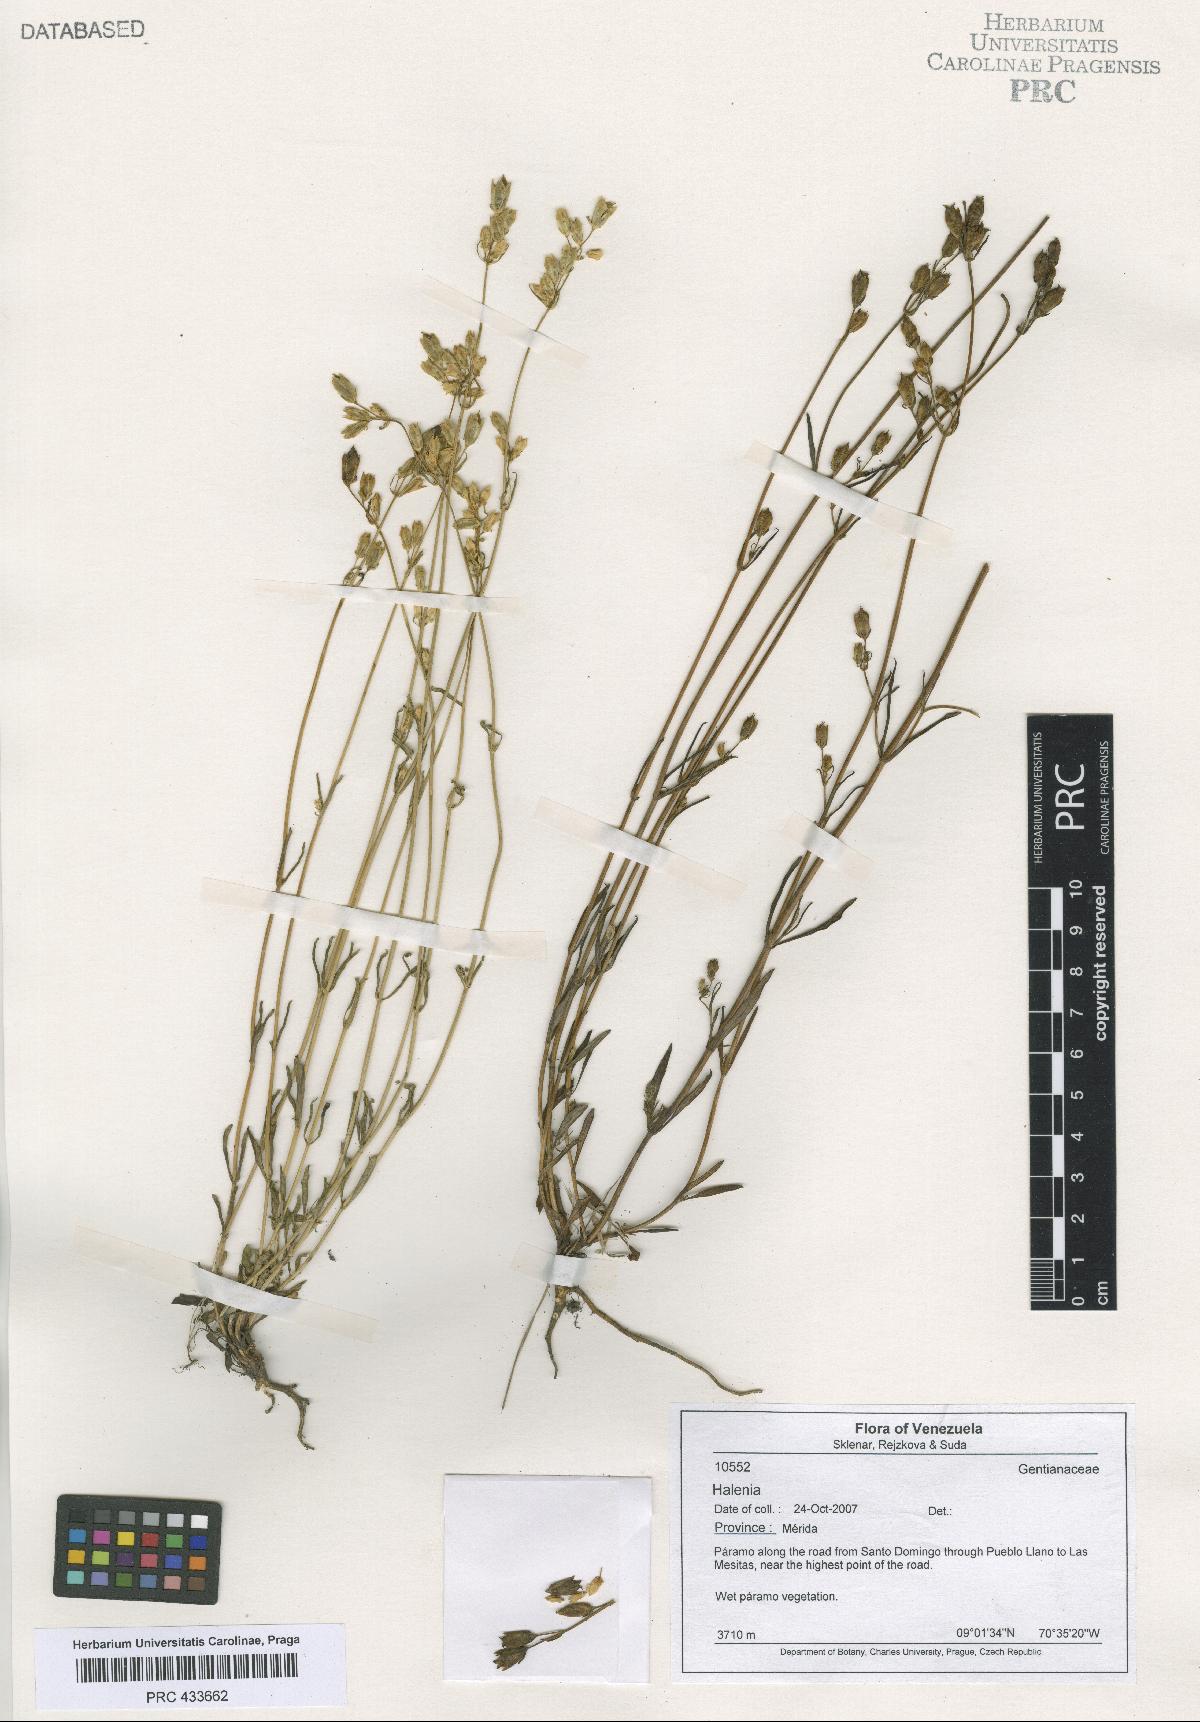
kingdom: Plantae
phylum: Tracheophyta
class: Magnoliopsida
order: Gentianales
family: Gentianaceae
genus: Halenia
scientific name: Halenia
